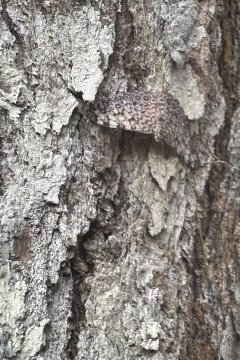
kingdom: Animalia
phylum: Arthropoda
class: Insecta
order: Lepidoptera
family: Nymphalidae
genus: Hamadryas
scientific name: Hamadryas feronia
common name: Variable Cracker
